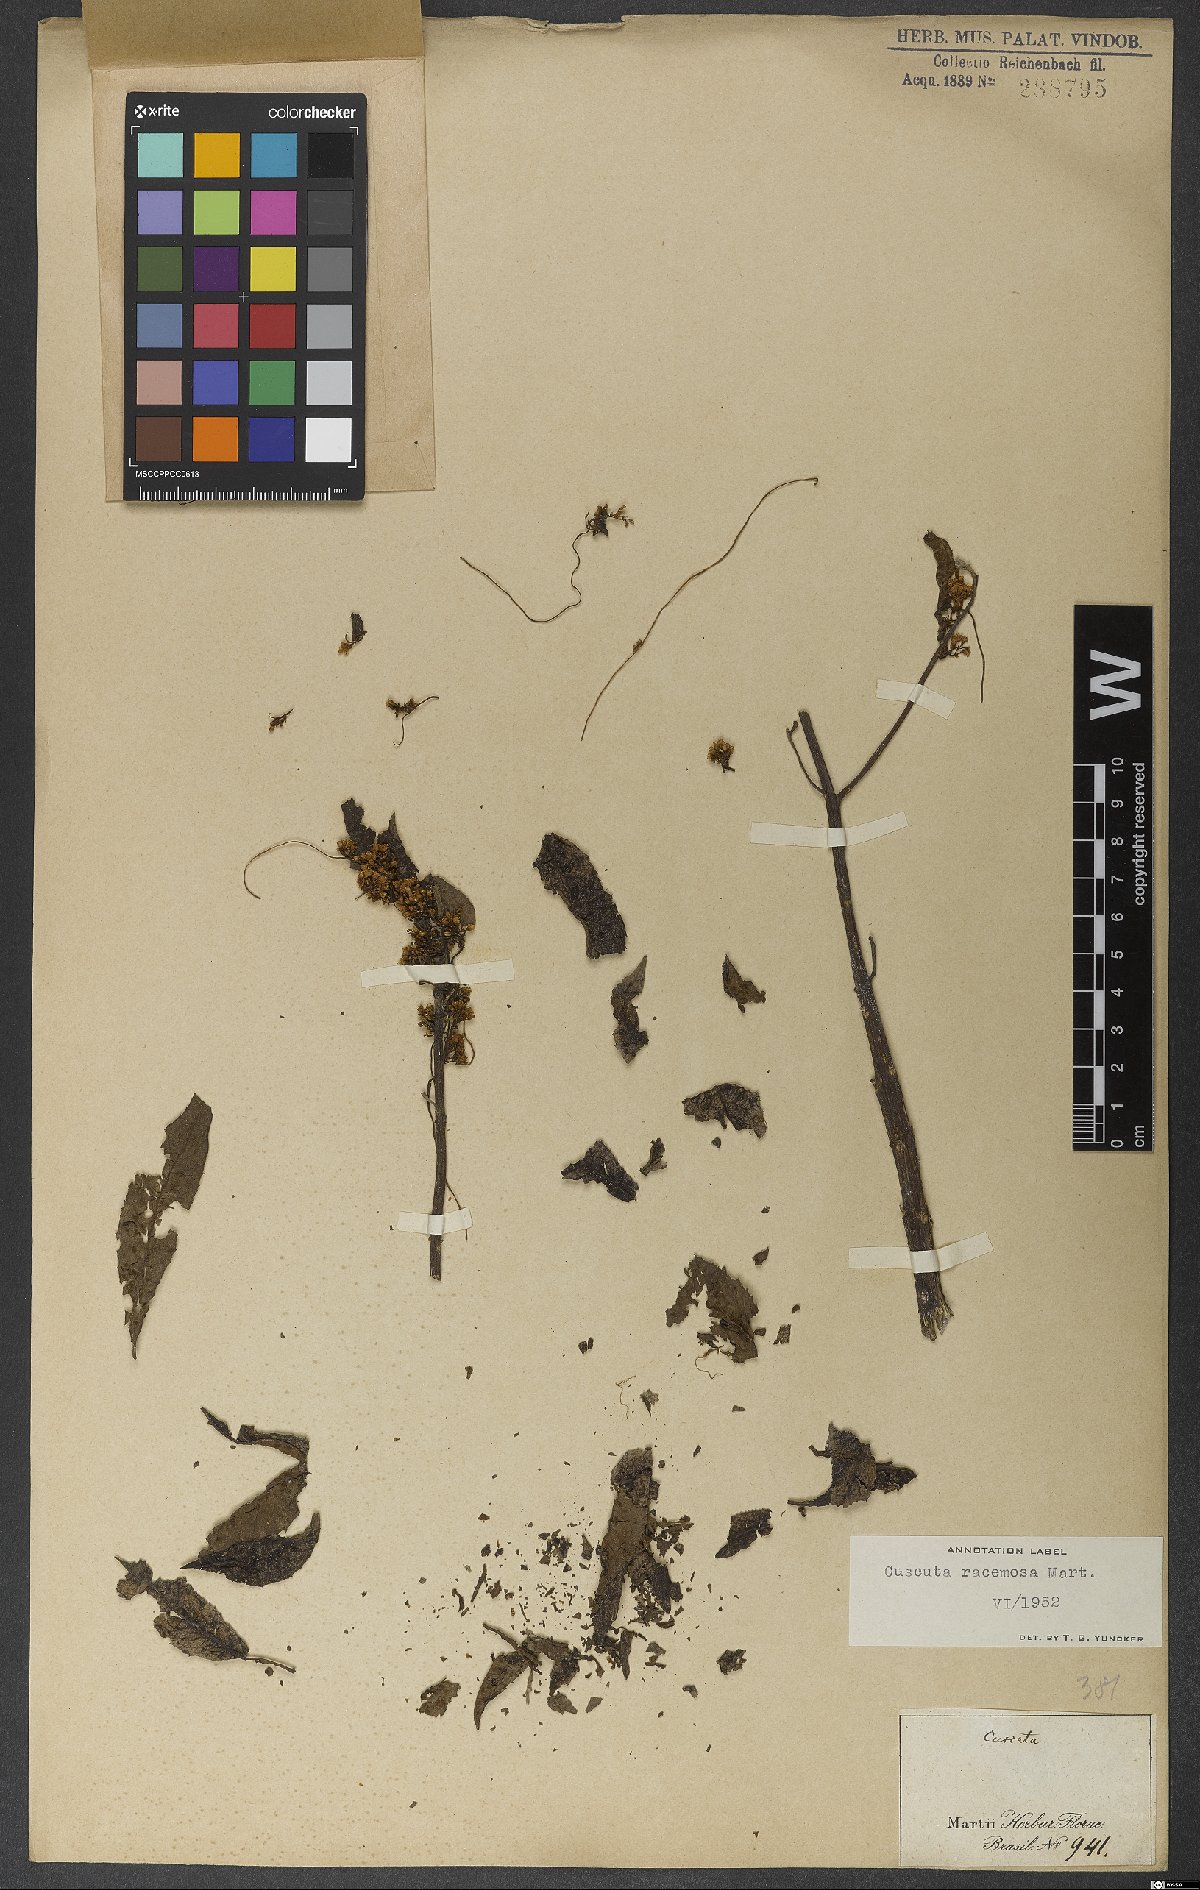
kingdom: Plantae
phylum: Tracheophyta
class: Magnoliopsida
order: Solanales
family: Convolvulaceae
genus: Cuscuta
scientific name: Cuscuta racemosa
